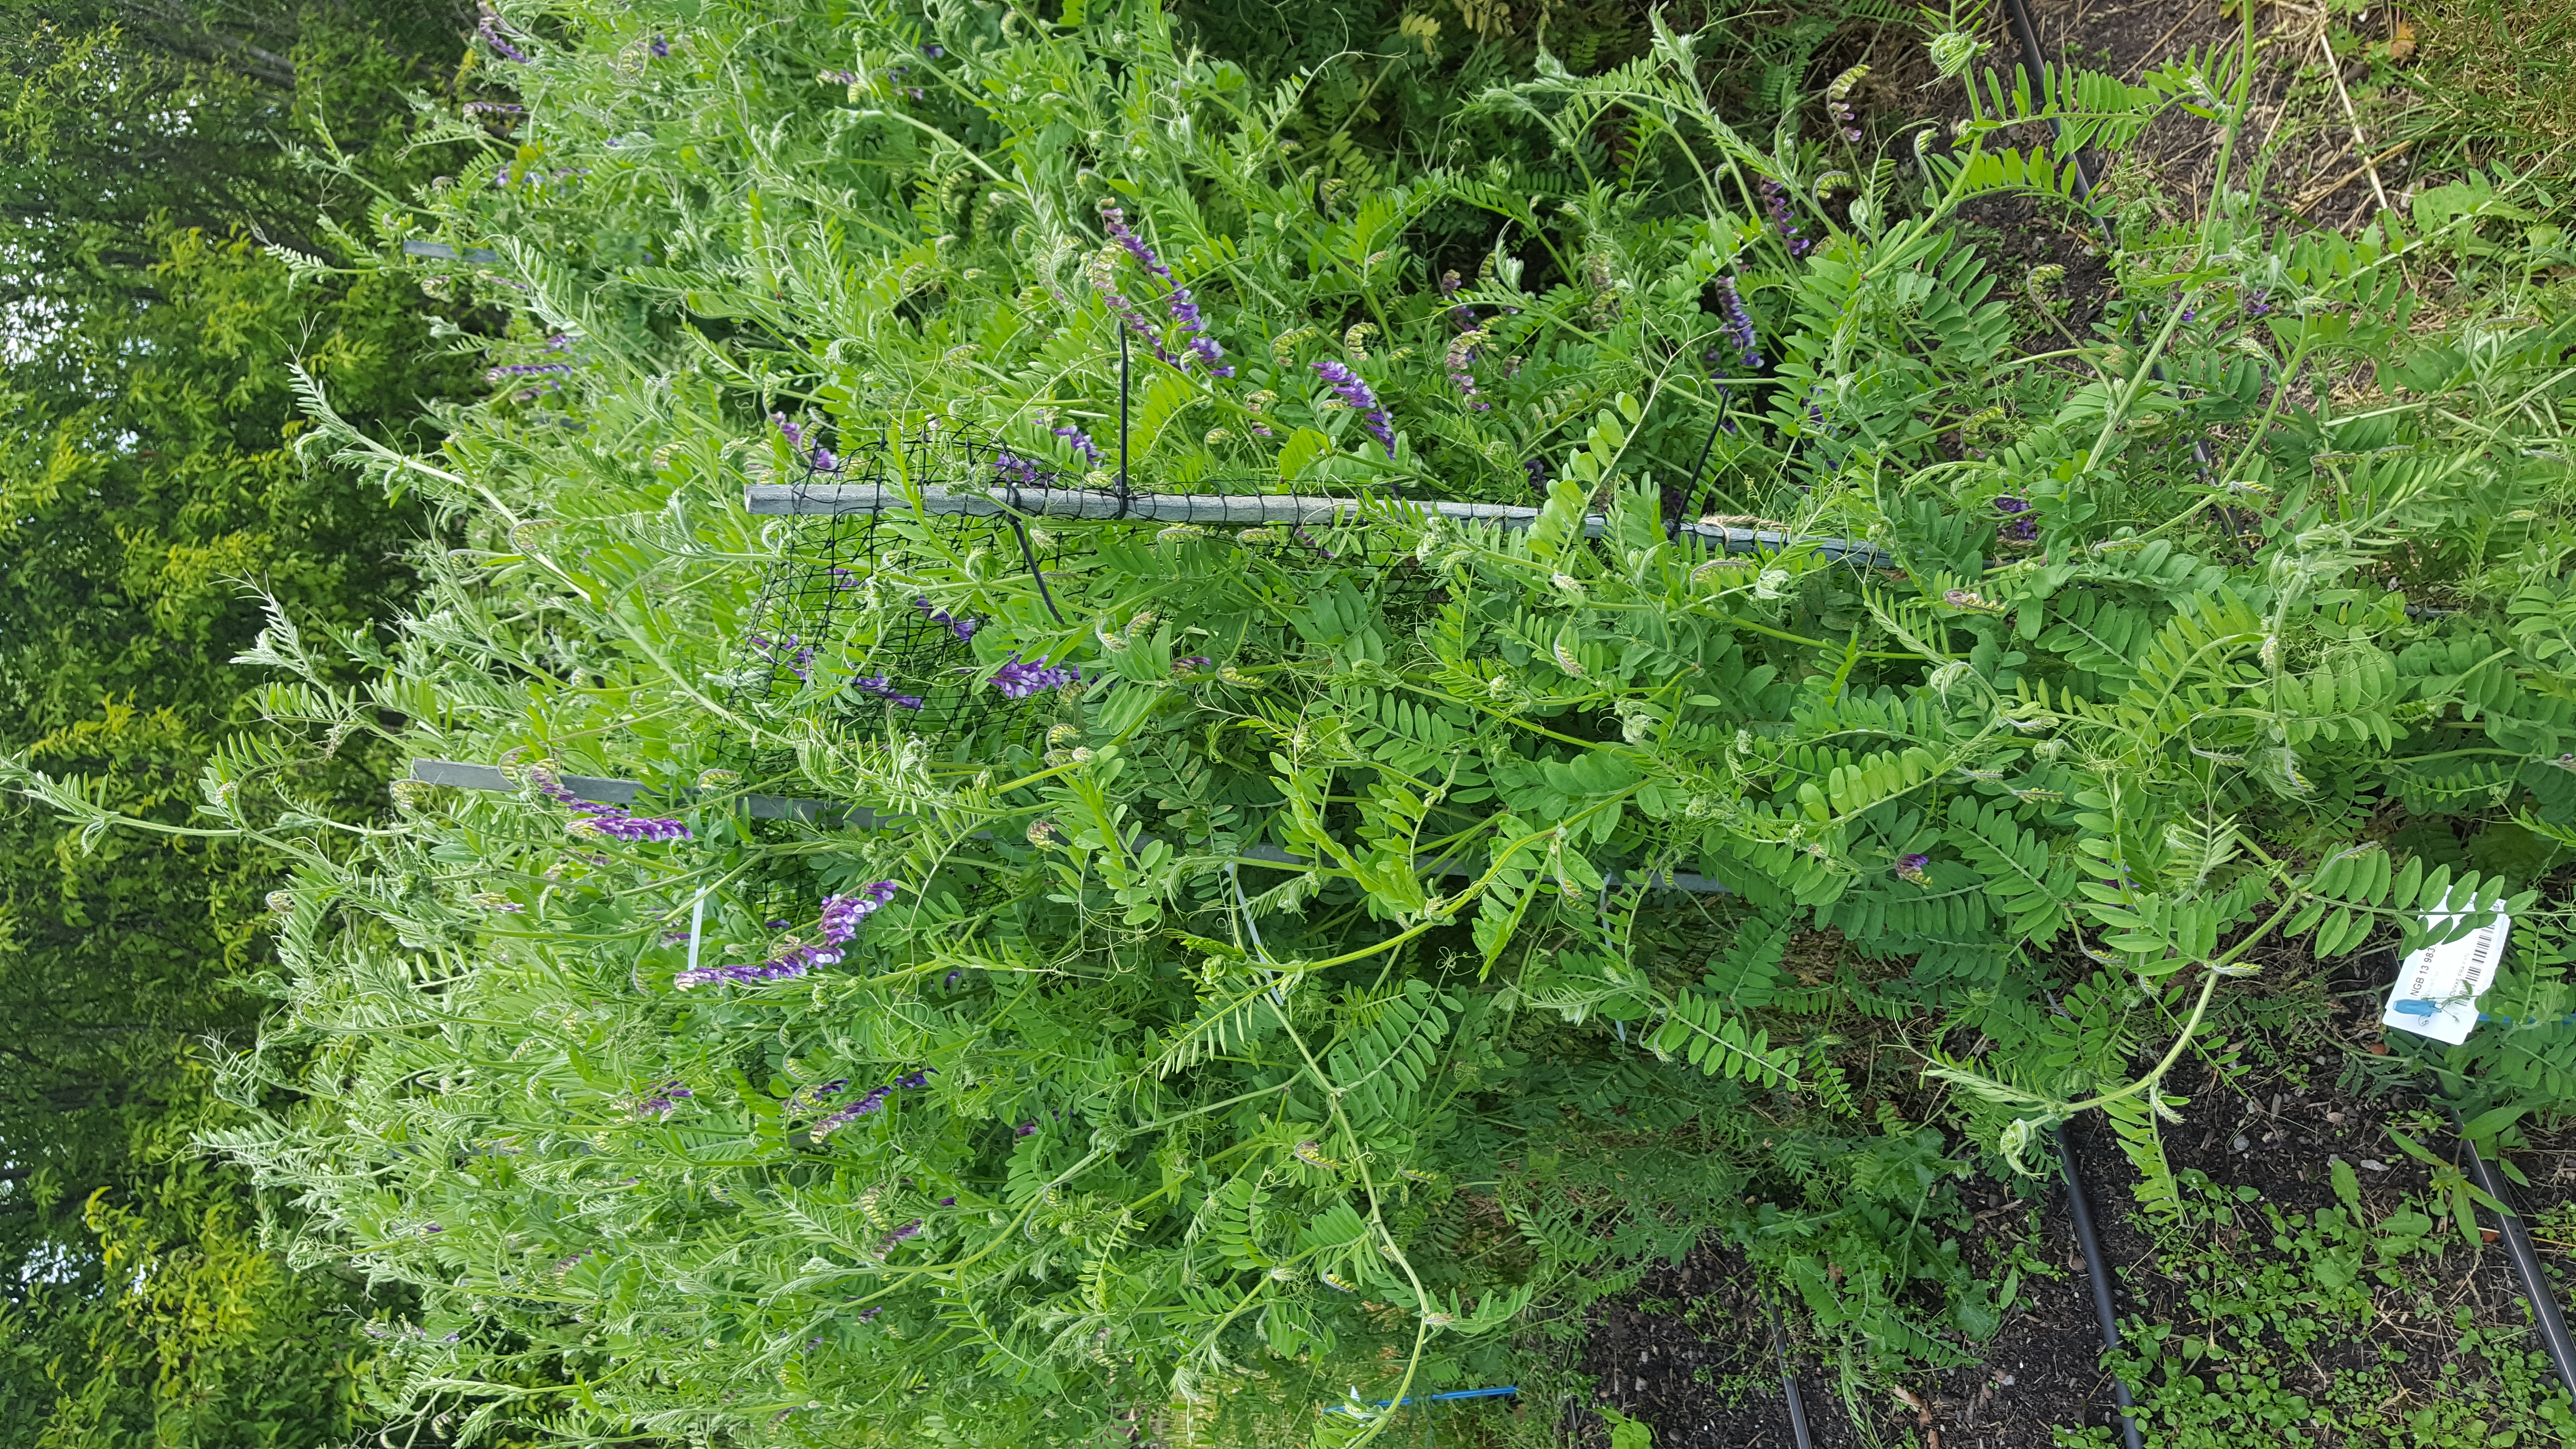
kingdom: Plantae
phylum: Tracheophyta
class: Magnoliopsida
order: Fabales
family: Fabaceae
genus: Vicia
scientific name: Vicia villosa
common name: Fodder vetch
